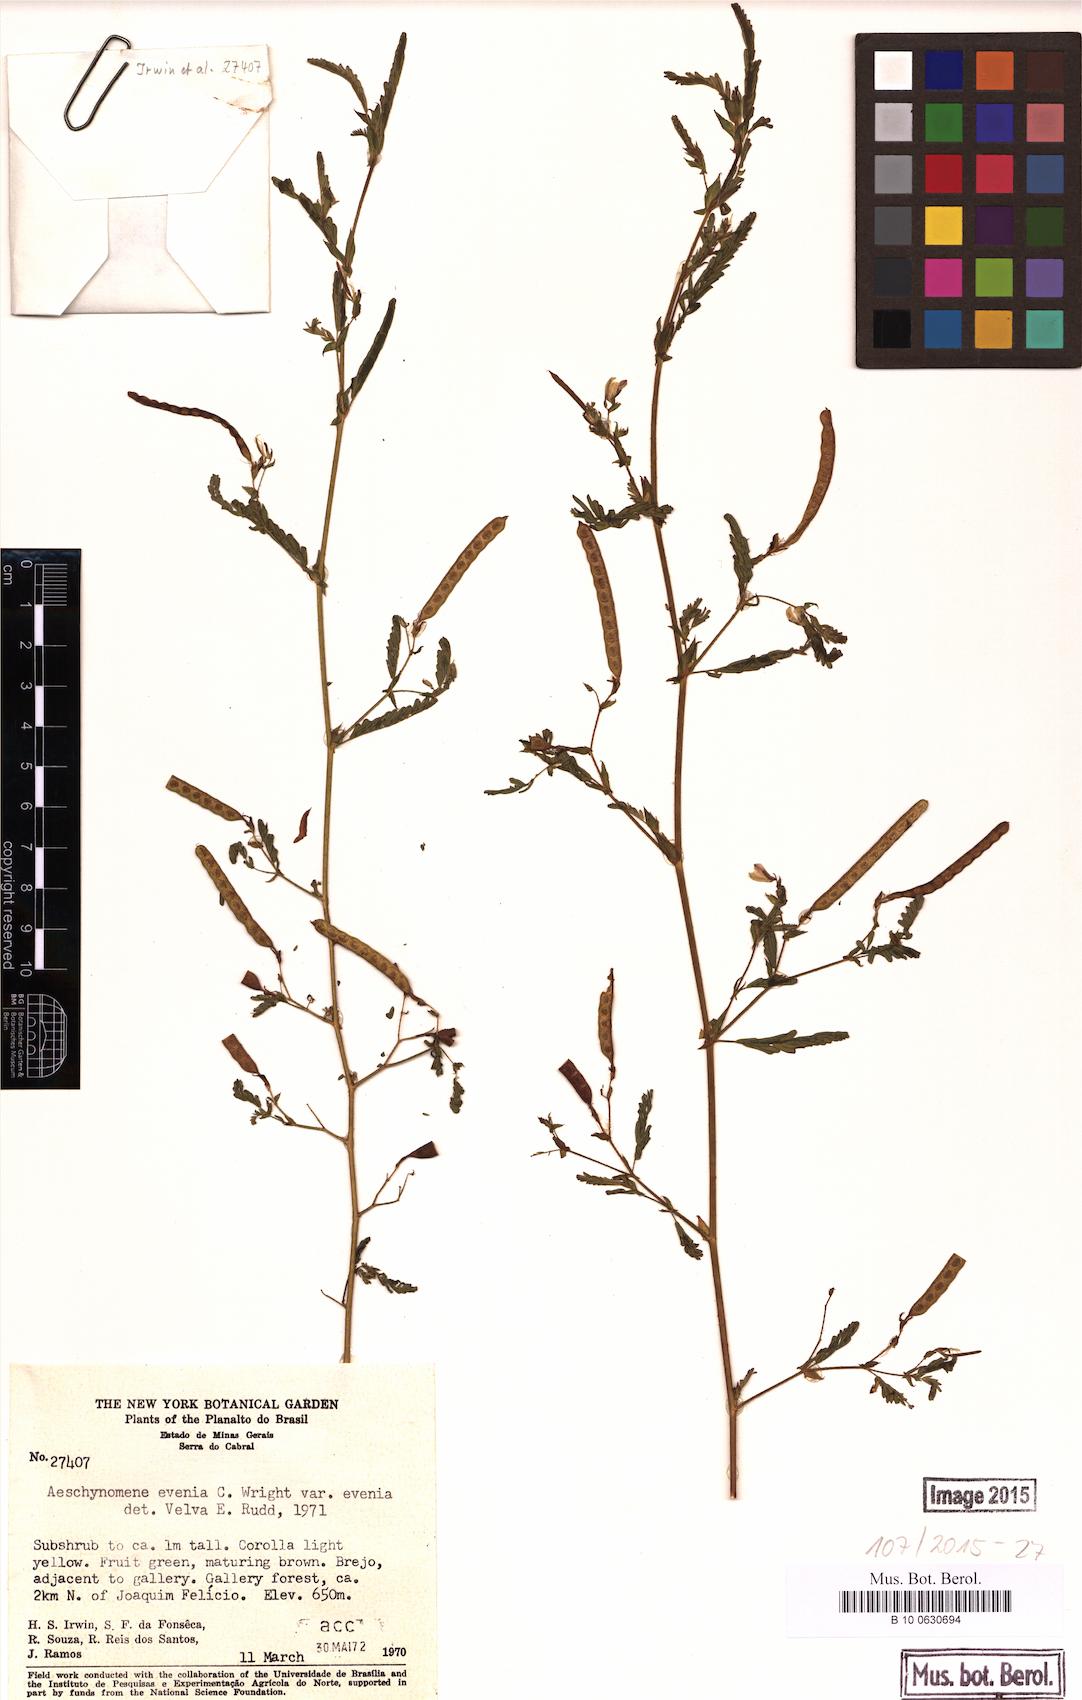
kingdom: Plantae
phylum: Tracheophyta
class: Magnoliopsida
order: Fabales
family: Fabaceae
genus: Aeschynomene
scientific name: Aeschynomene evenia
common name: Shrubby jointvetch
